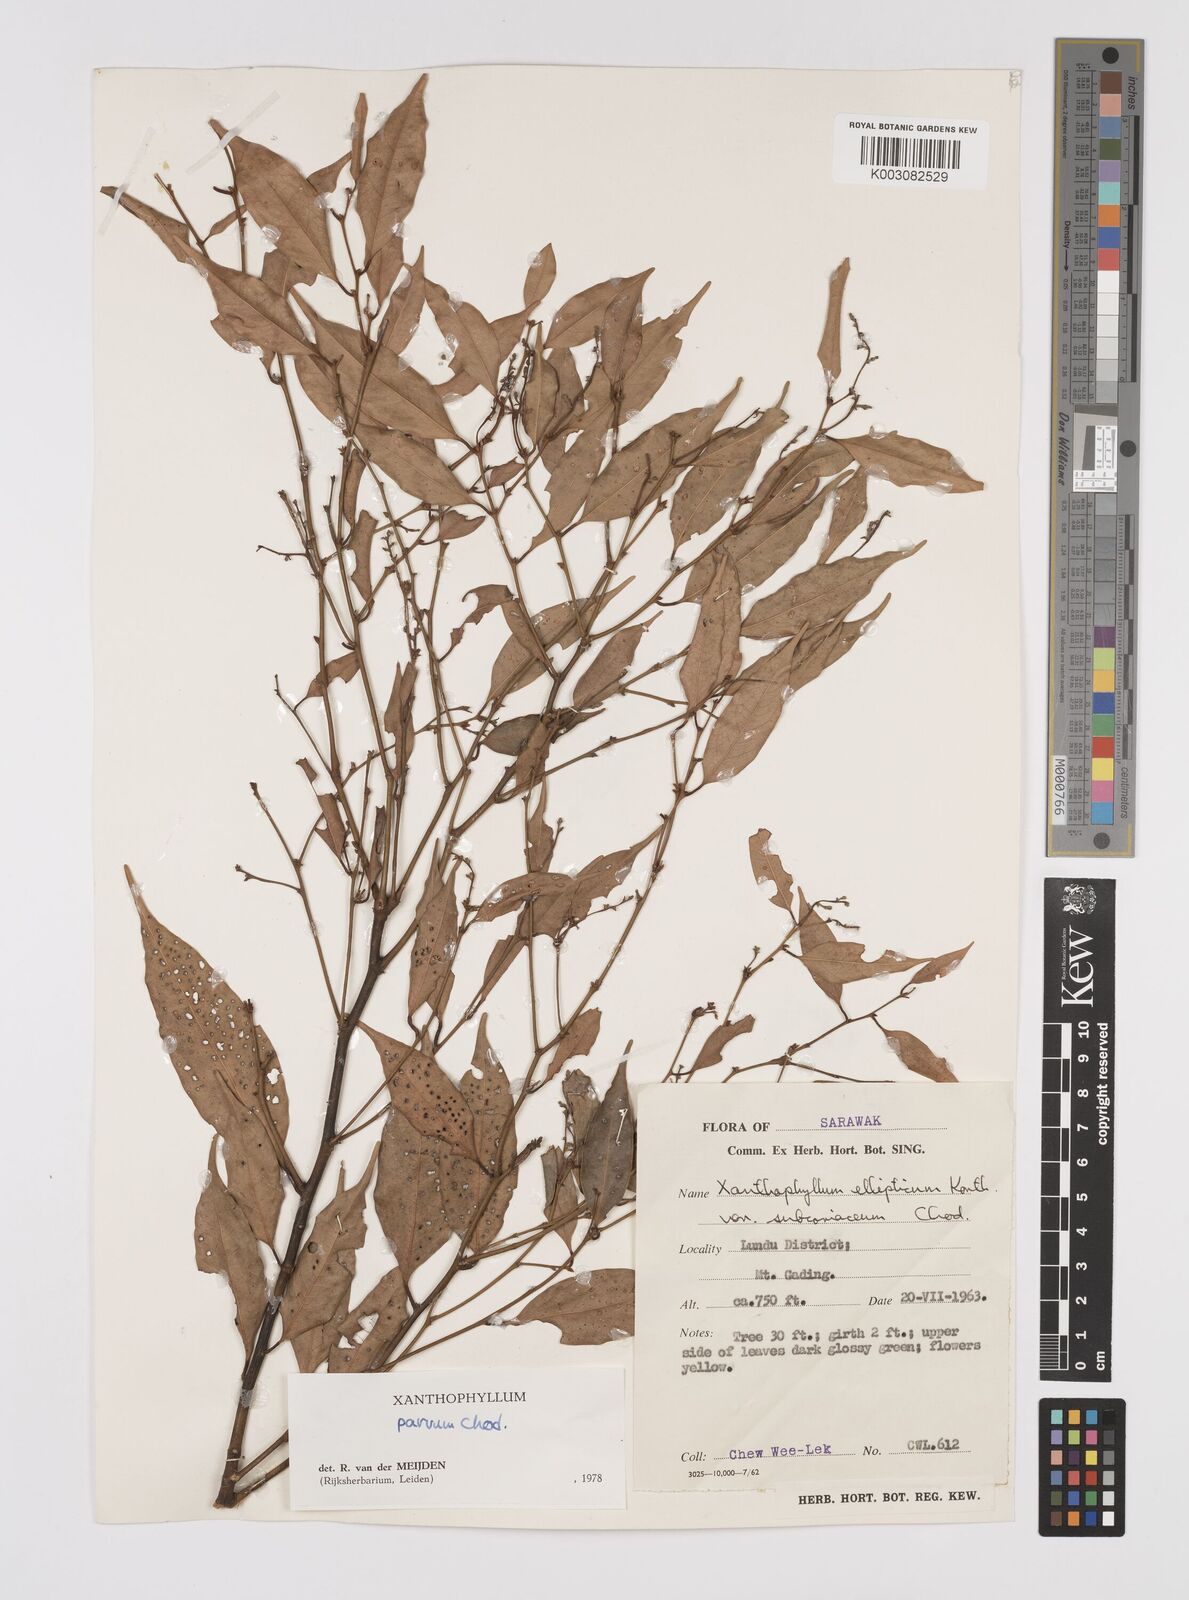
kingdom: Plantae
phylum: Tracheophyta
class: Magnoliopsida
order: Fabales
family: Polygalaceae
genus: Xanthophyllum
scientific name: Xanthophyllum griffithii
